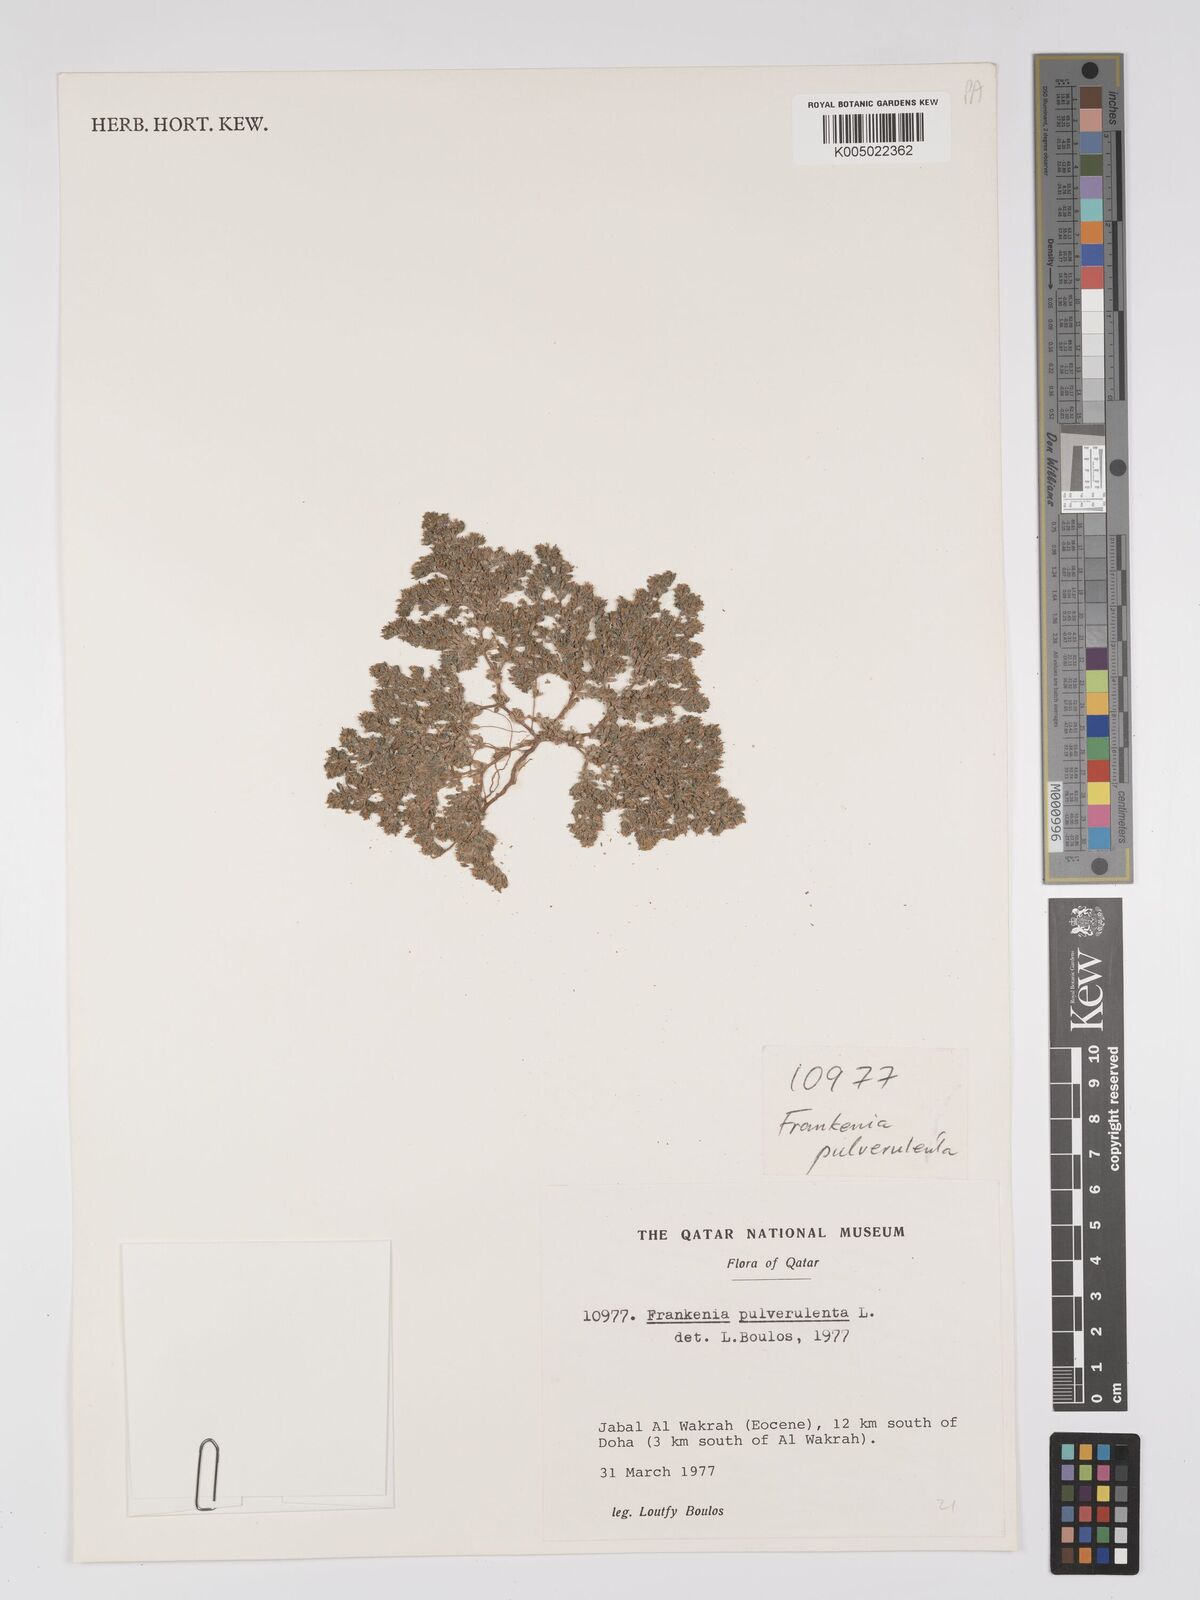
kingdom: Plantae
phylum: Tracheophyta
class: Magnoliopsida
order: Caryophyllales
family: Frankeniaceae
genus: Frankenia
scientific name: Frankenia pulverulenta
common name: European seaheath
